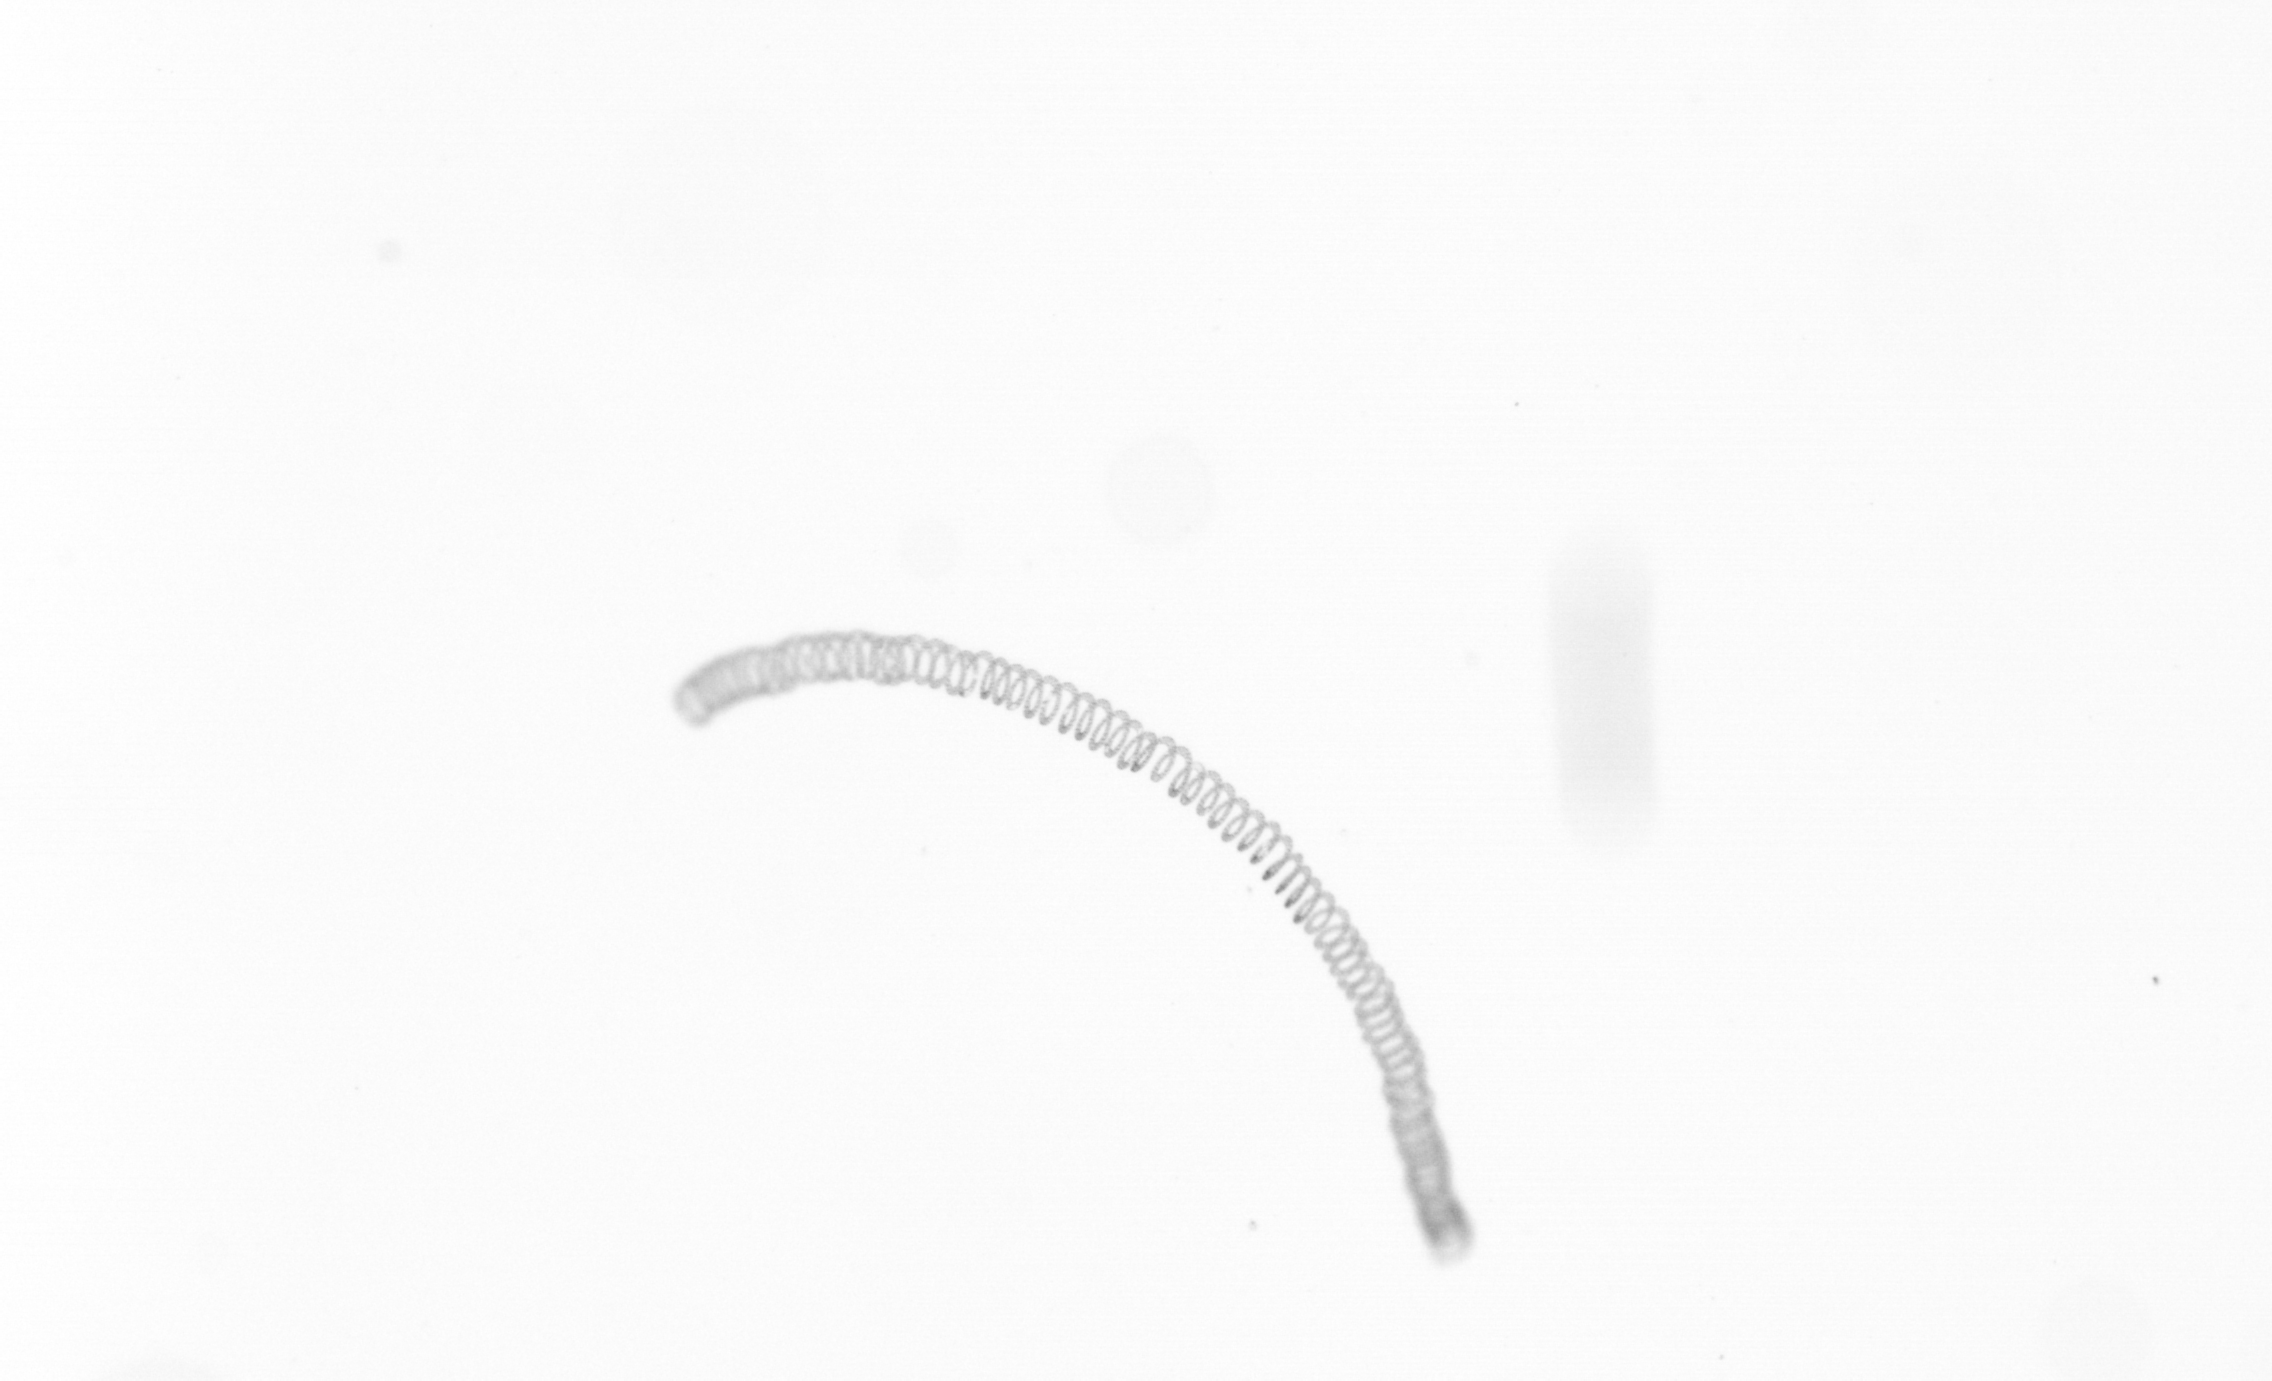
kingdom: Chromista
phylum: Ochrophyta
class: Bacillariophyceae
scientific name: Bacillariophyceae
